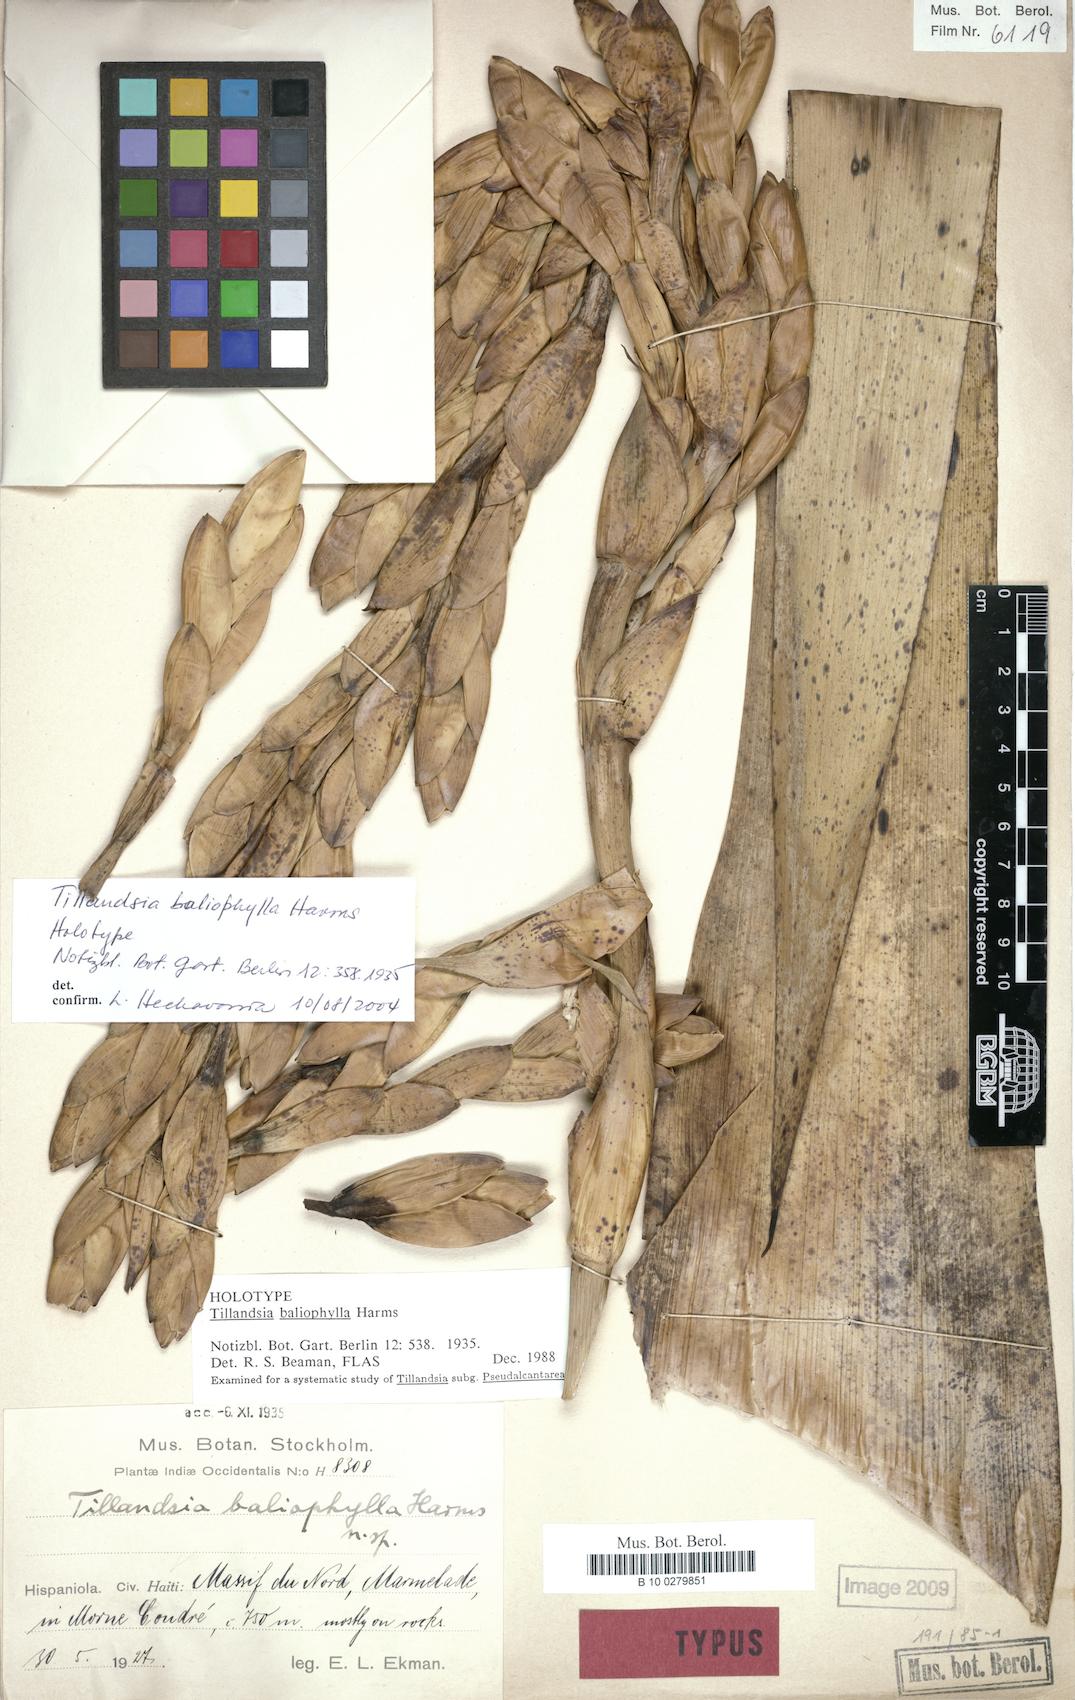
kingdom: Plantae
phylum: Tracheophyta
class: Liliopsida
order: Poales
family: Bromeliaceae
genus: Tillandsia
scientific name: Tillandsia baliophylla
